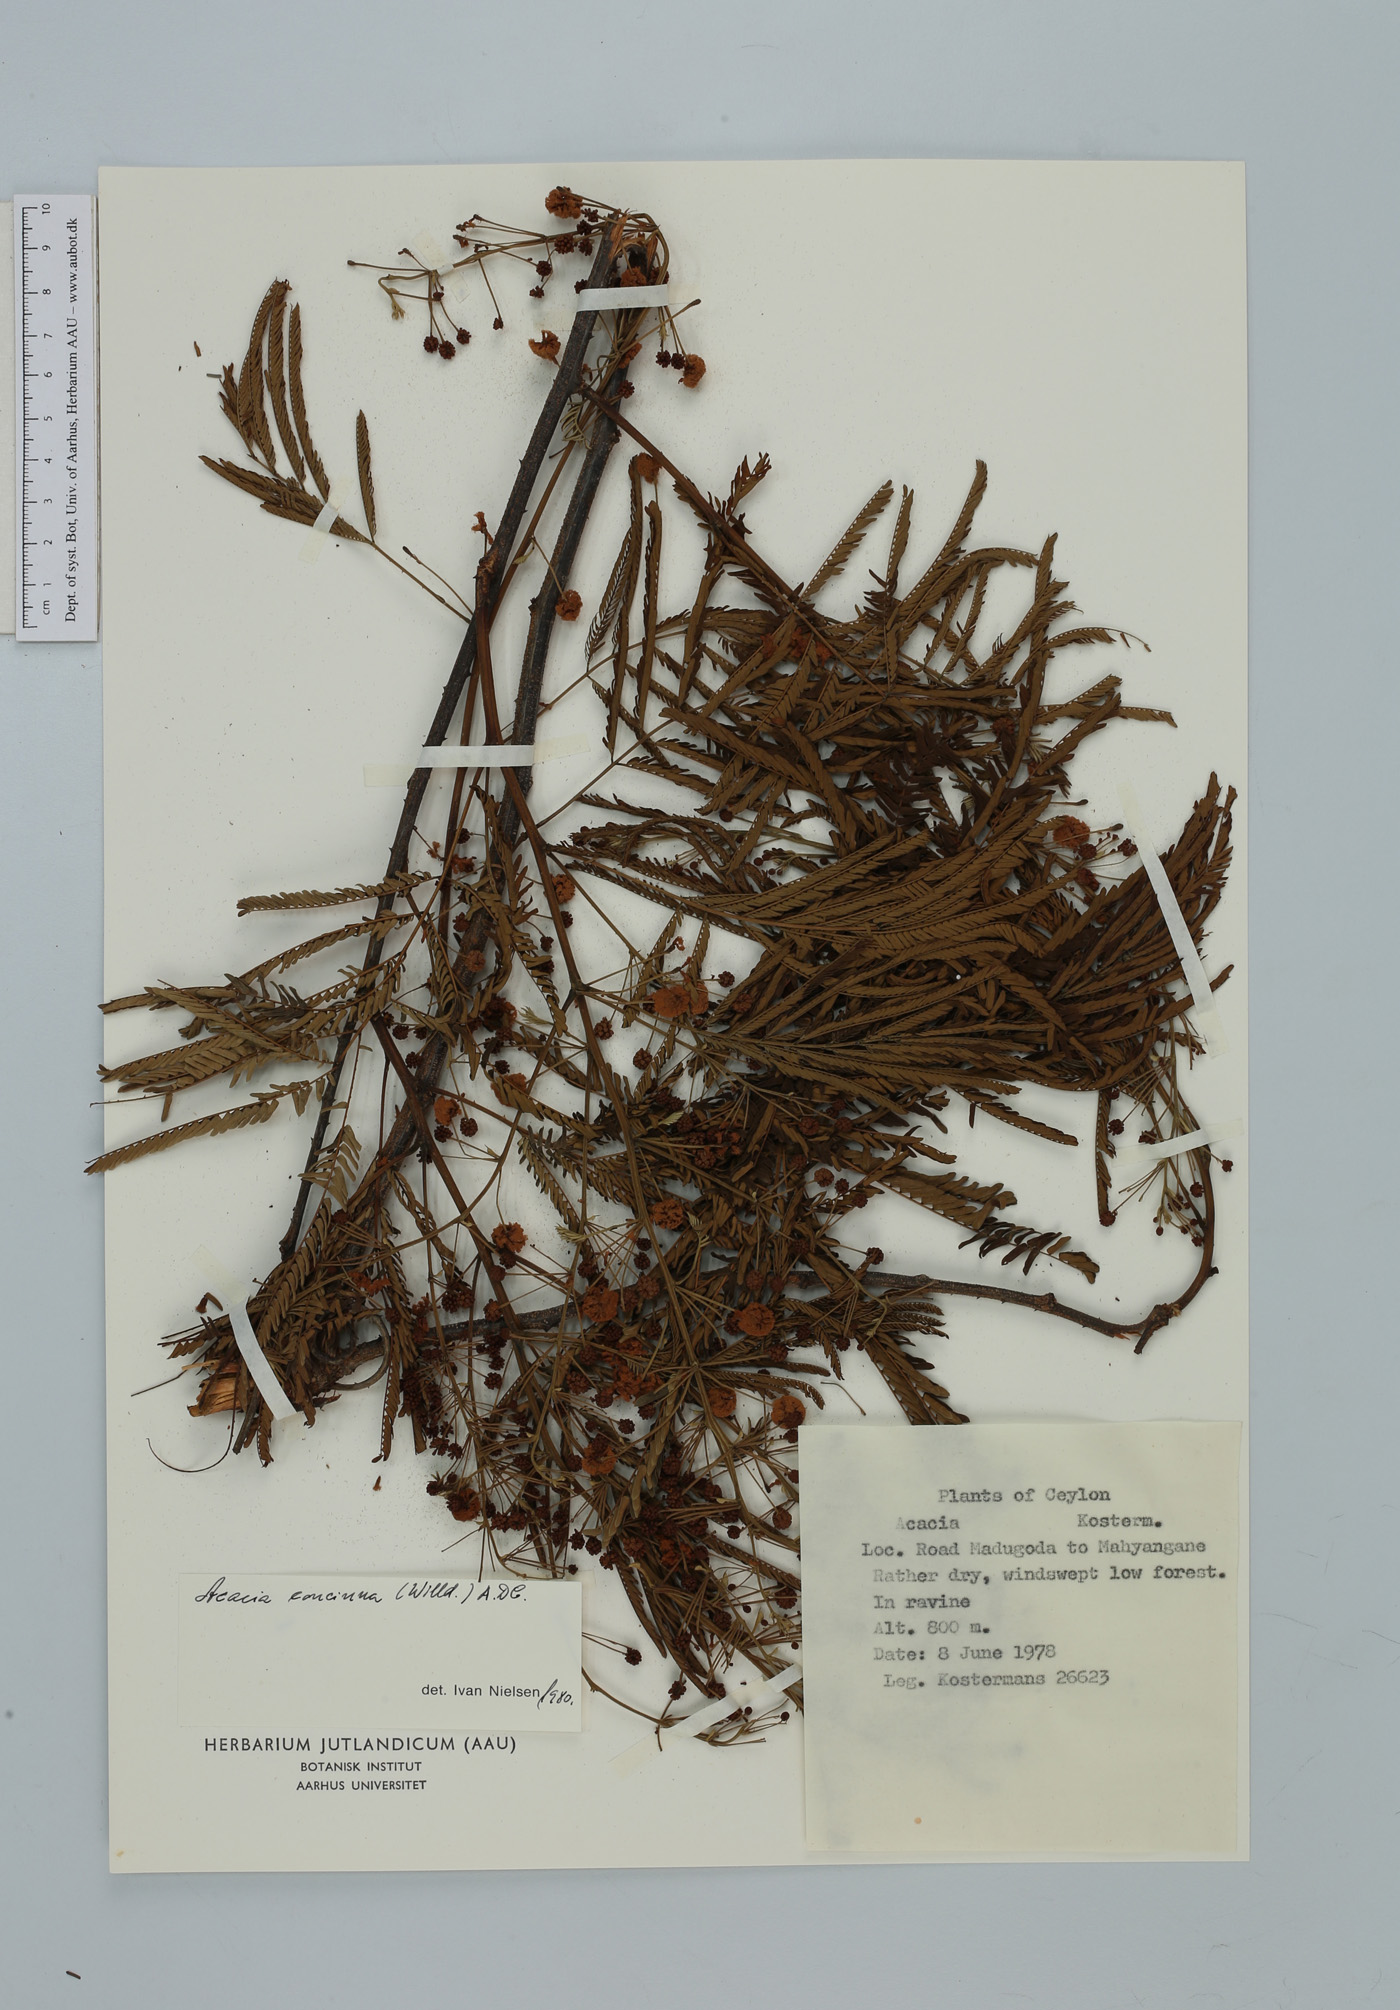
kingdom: Plantae
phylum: Tracheophyta
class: Magnoliopsida
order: Fabales
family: Fabaceae
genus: Senegalia
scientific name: Senegalia rugata
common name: Soap-pod
